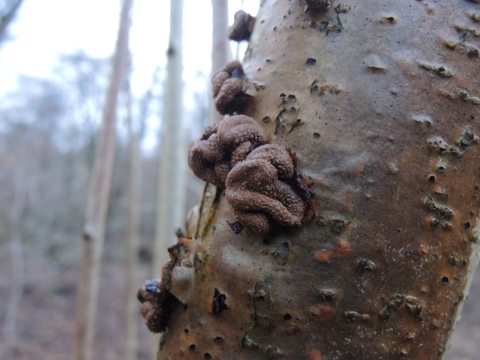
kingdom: Fungi
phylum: Ascomycota
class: Leotiomycetes
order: Helotiales
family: Cenangiaceae
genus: Encoelia
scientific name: Encoelia furfuracea
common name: hassel-læderskive
